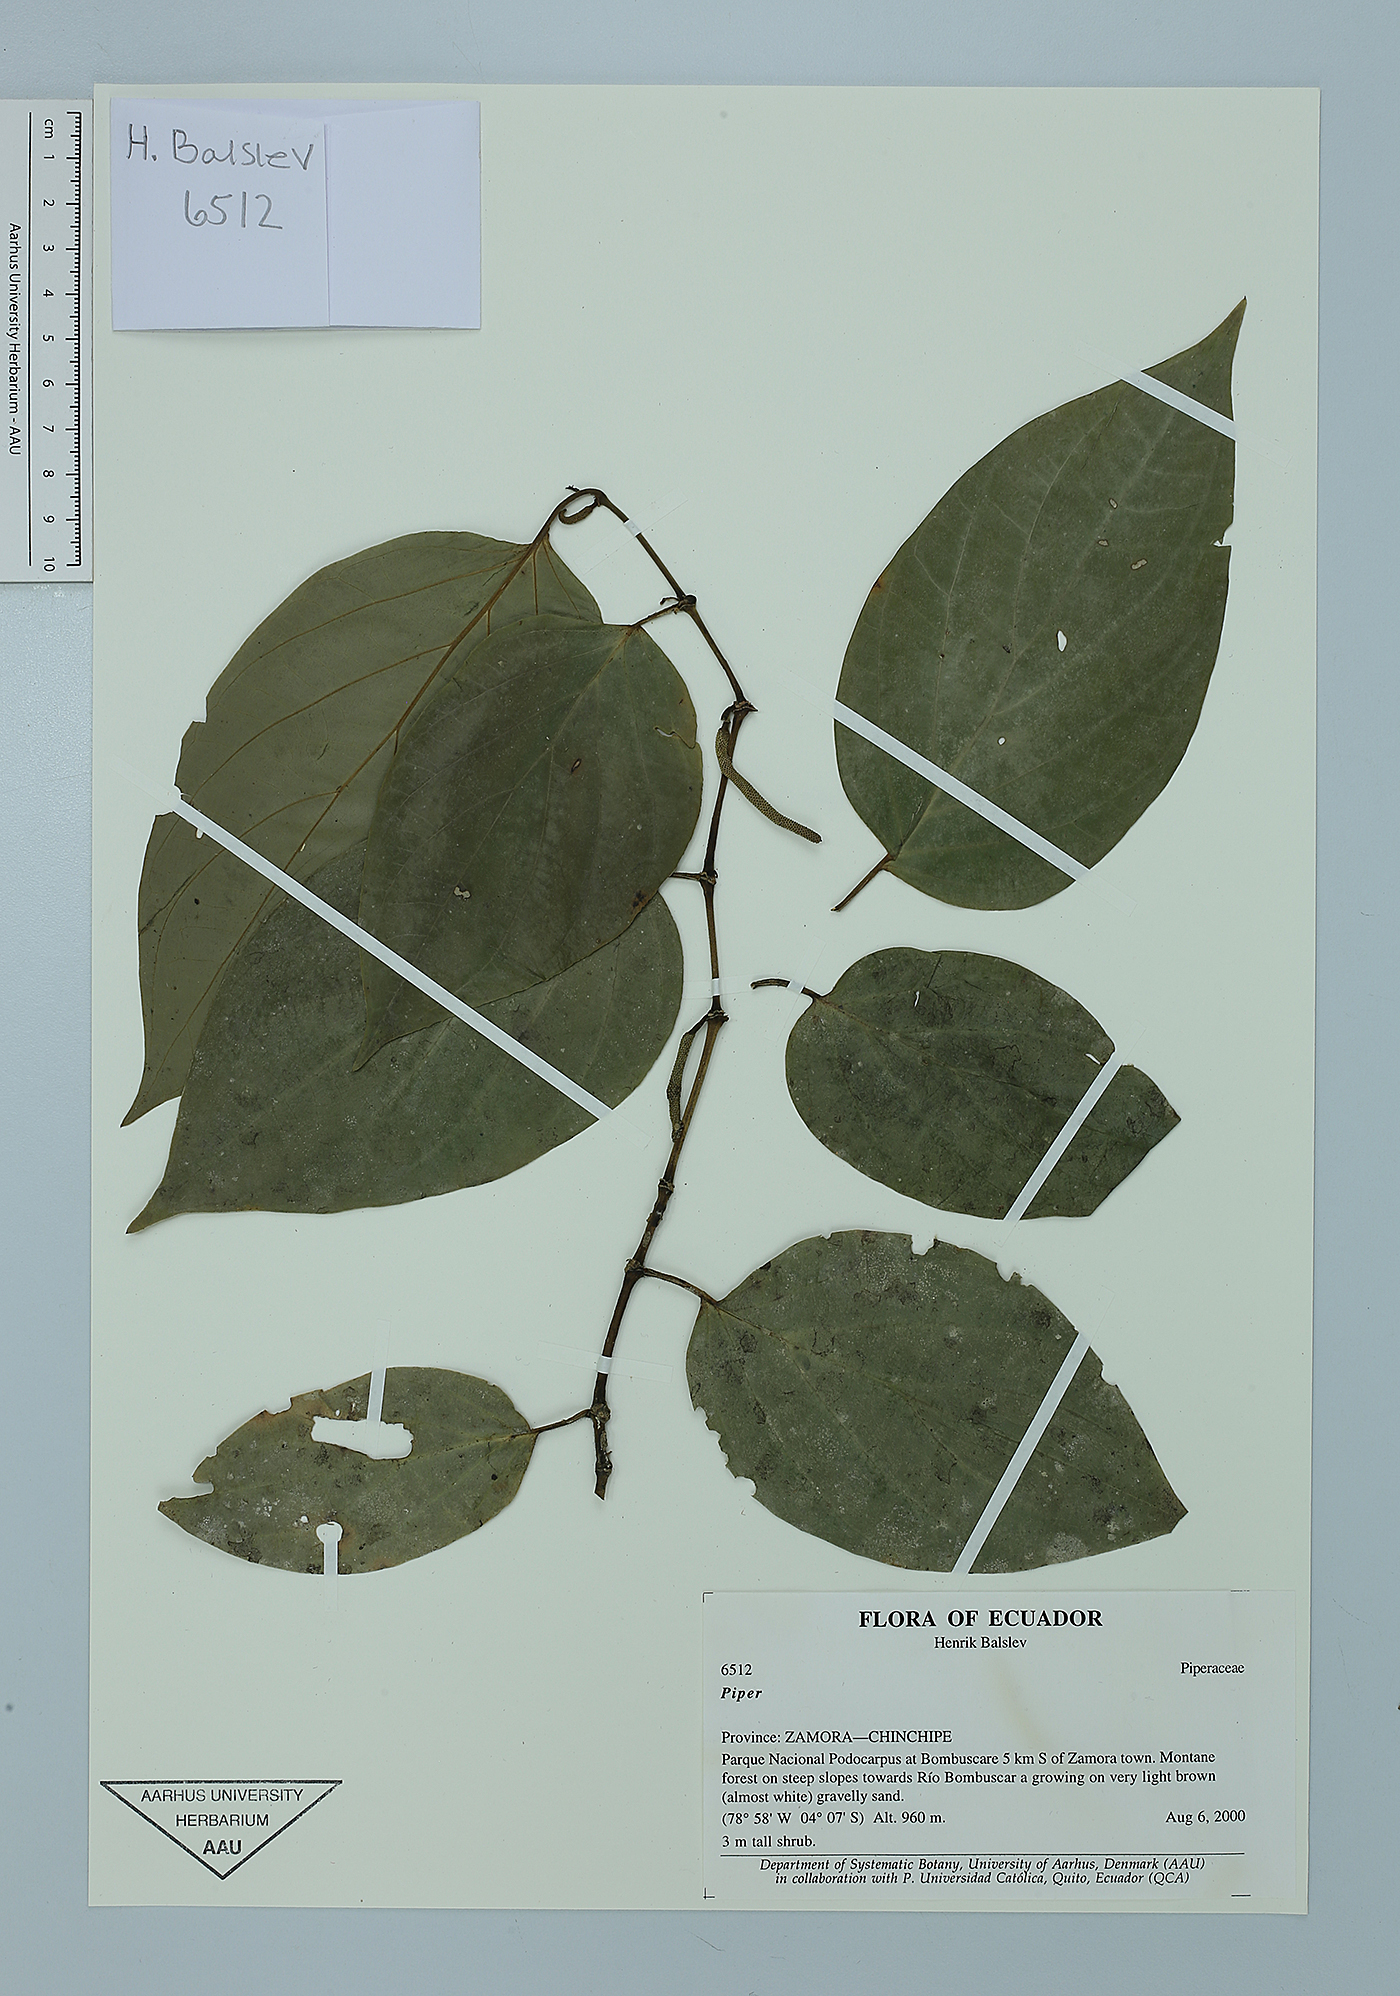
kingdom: Plantae
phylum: Tracheophyta
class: Magnoliopsida
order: Piperales
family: Piperaceae
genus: Piper
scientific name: Piper aequale
